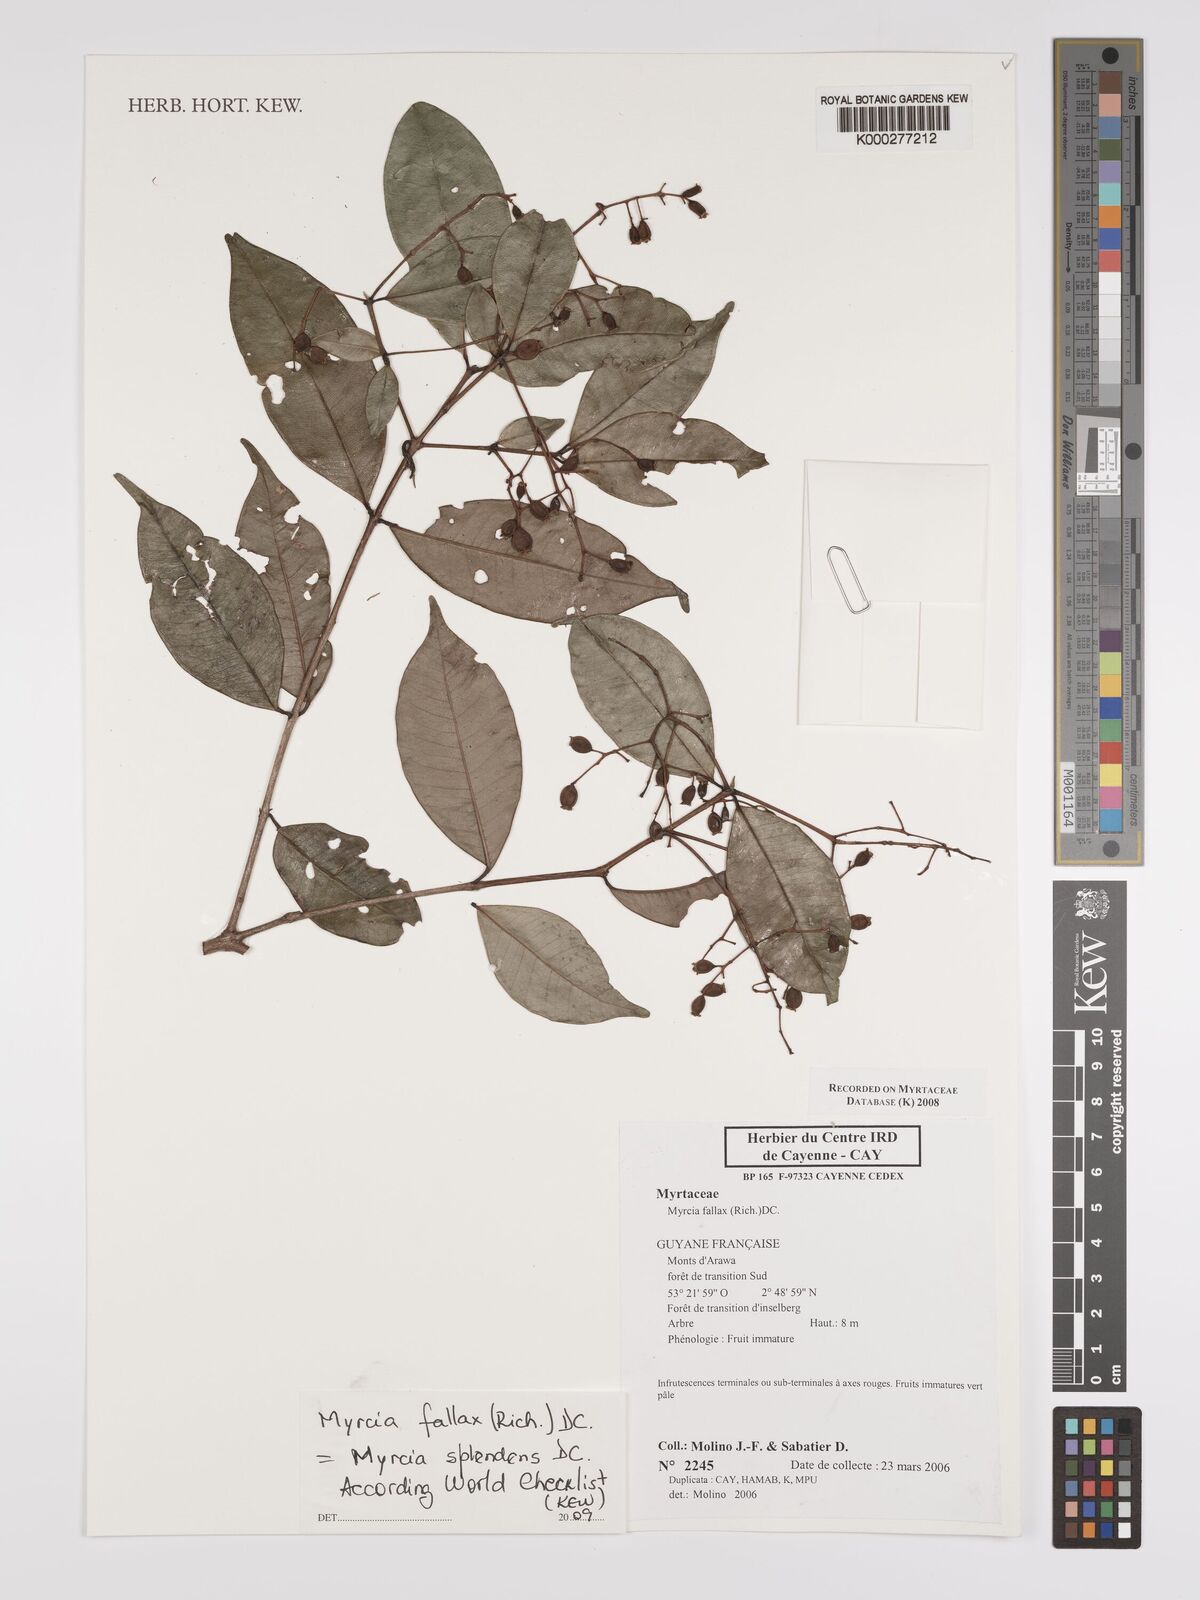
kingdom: Plantae
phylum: Tracheophyta
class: Magnoliopsida
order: Myrtales
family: Myrtaceae
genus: Myrcia
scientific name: Myrcia splendens
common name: Surinam cherry
